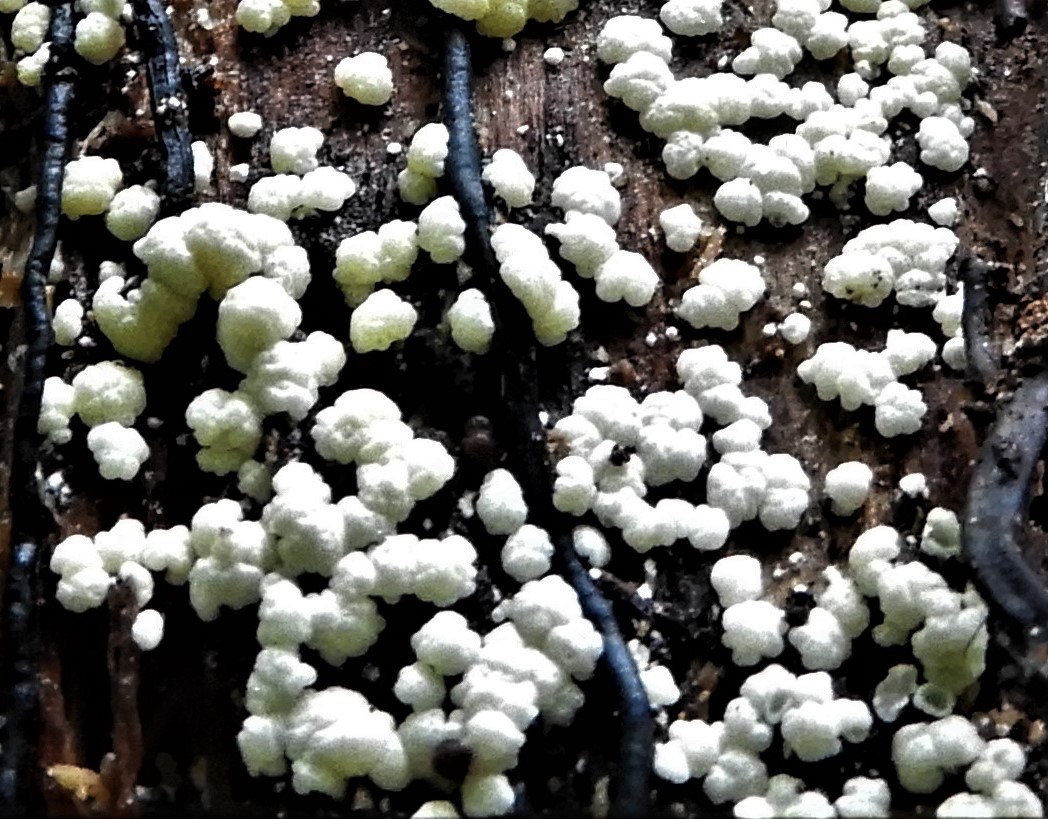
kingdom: Fungi
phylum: Ascomycota
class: Sordariomycetes
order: Hypocreales
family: Hypocreaceae
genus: Trichoderma
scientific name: Trichoderma
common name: kødkerne
